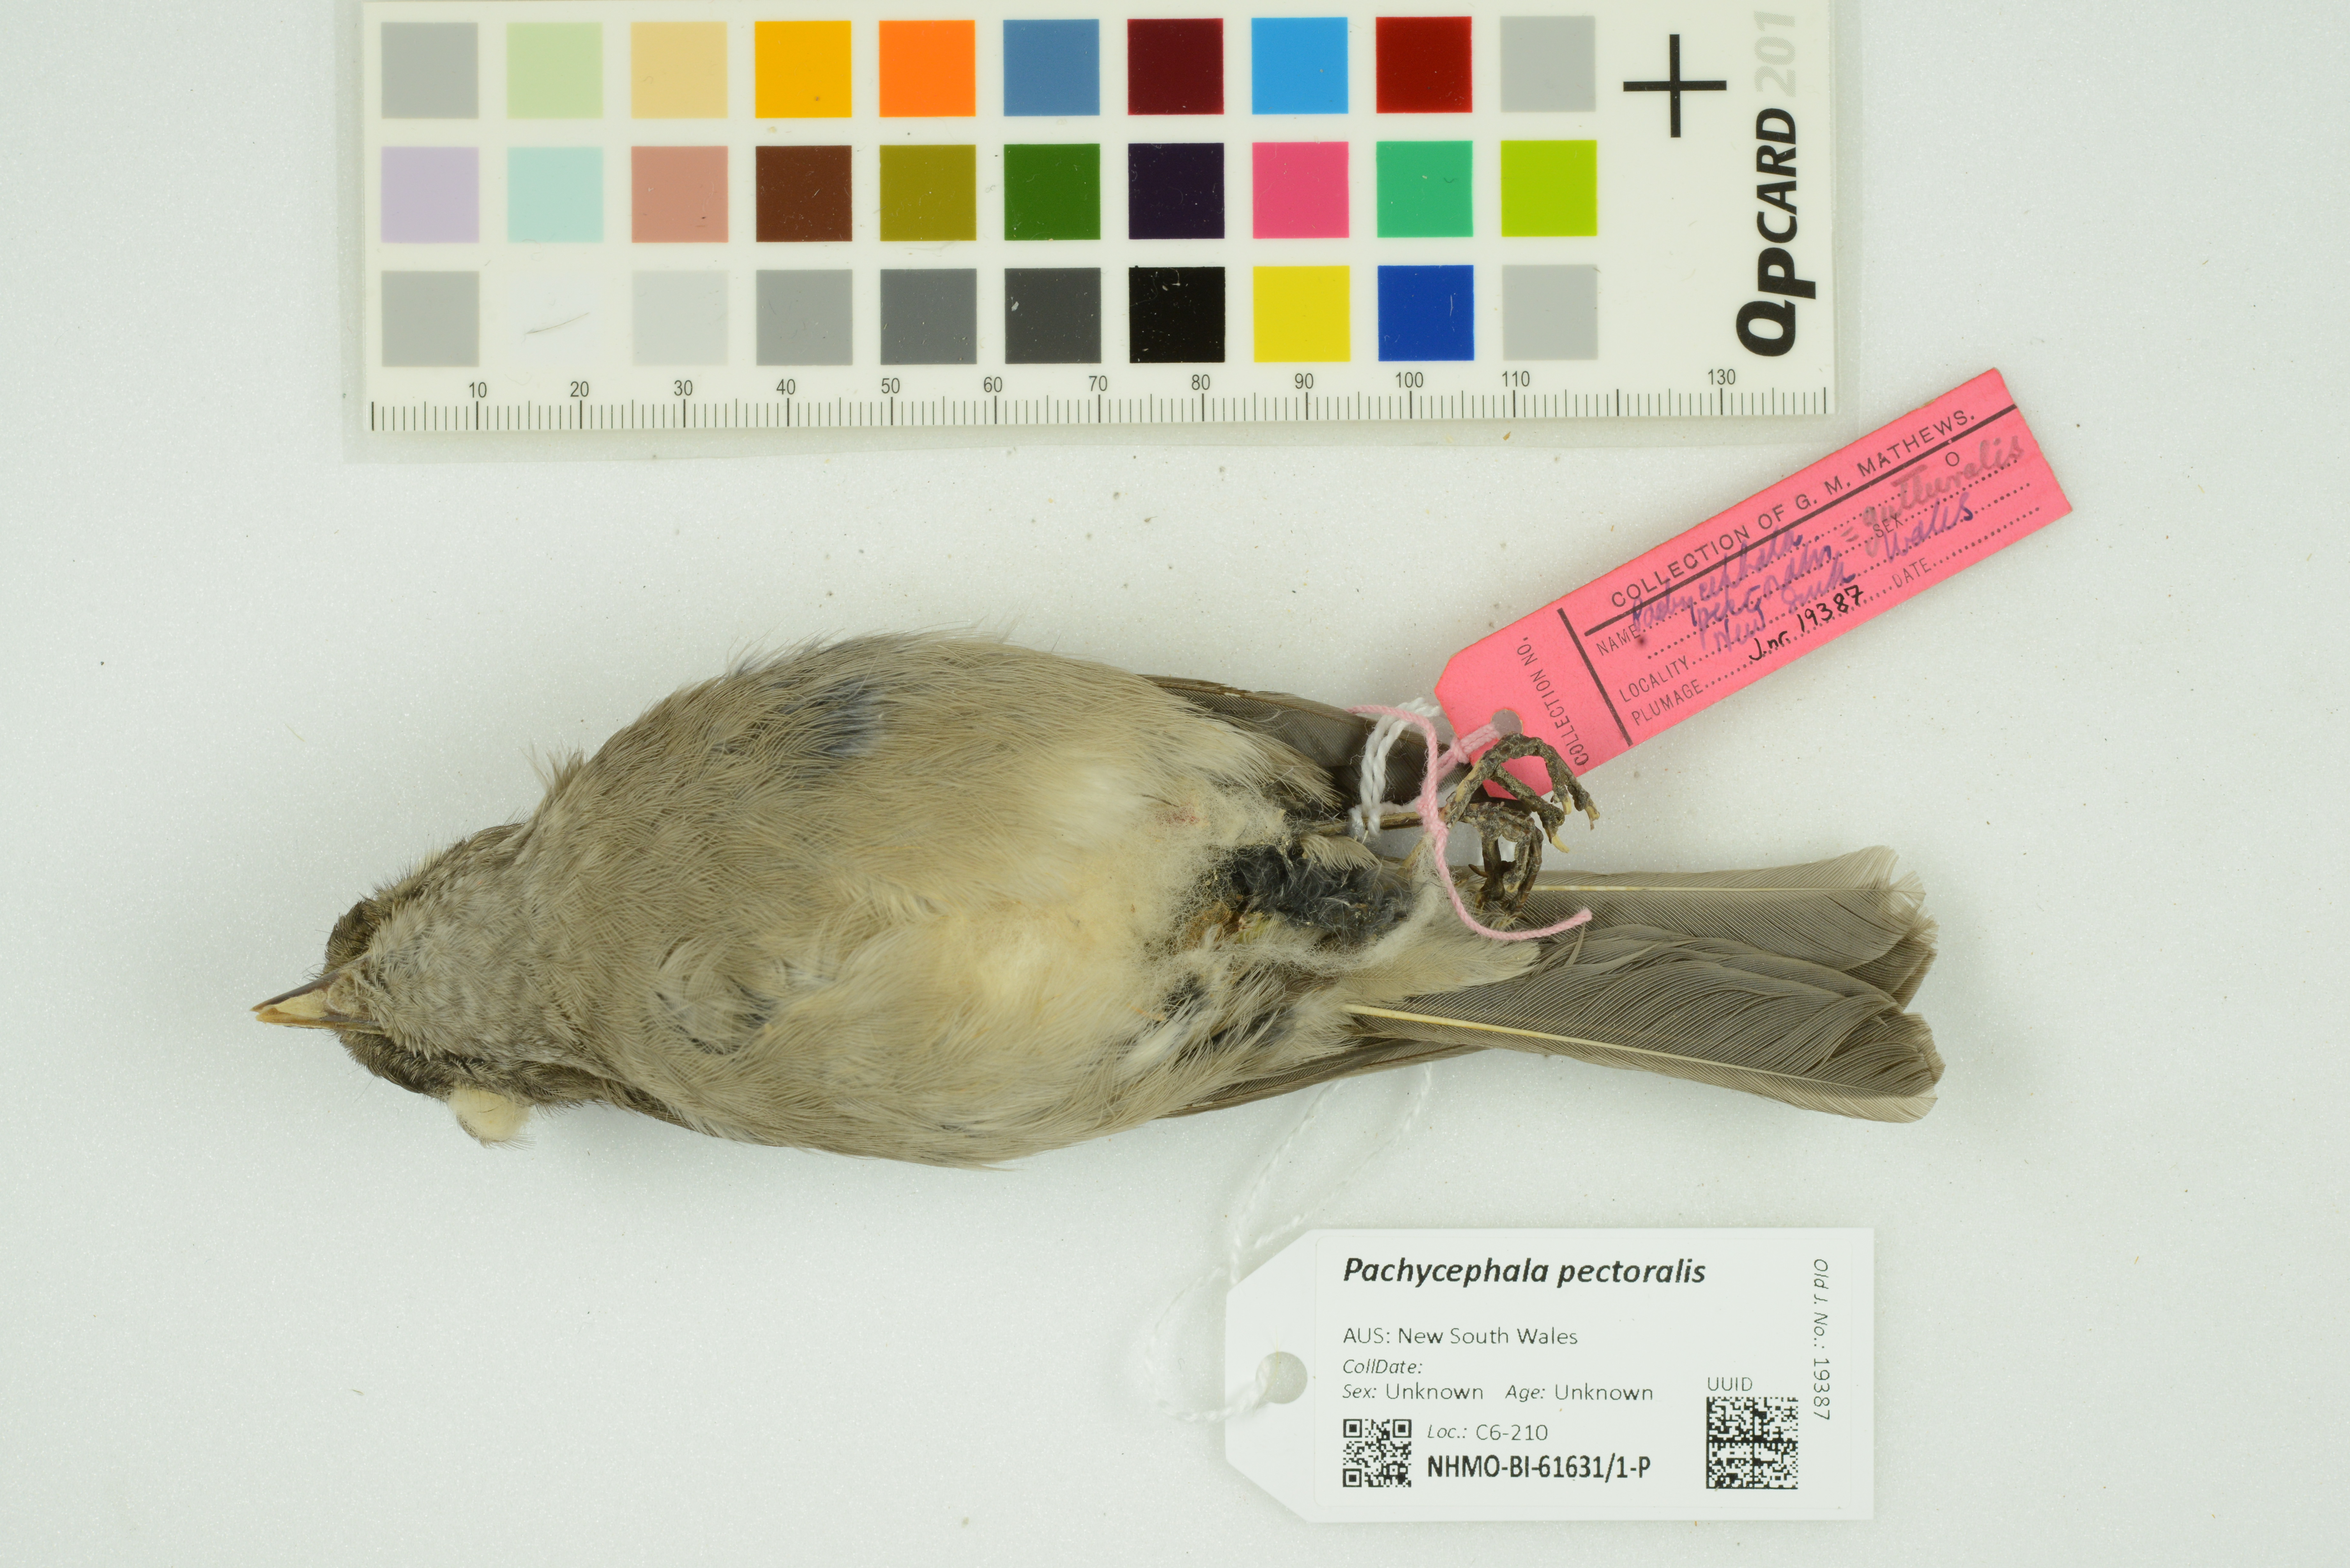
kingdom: Animalia
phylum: Chordata
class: Aves
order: Passeriformes
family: Pachycephalidae
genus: Pachycephala
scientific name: Pachycephala pectoralis
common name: Australian golden whistler
